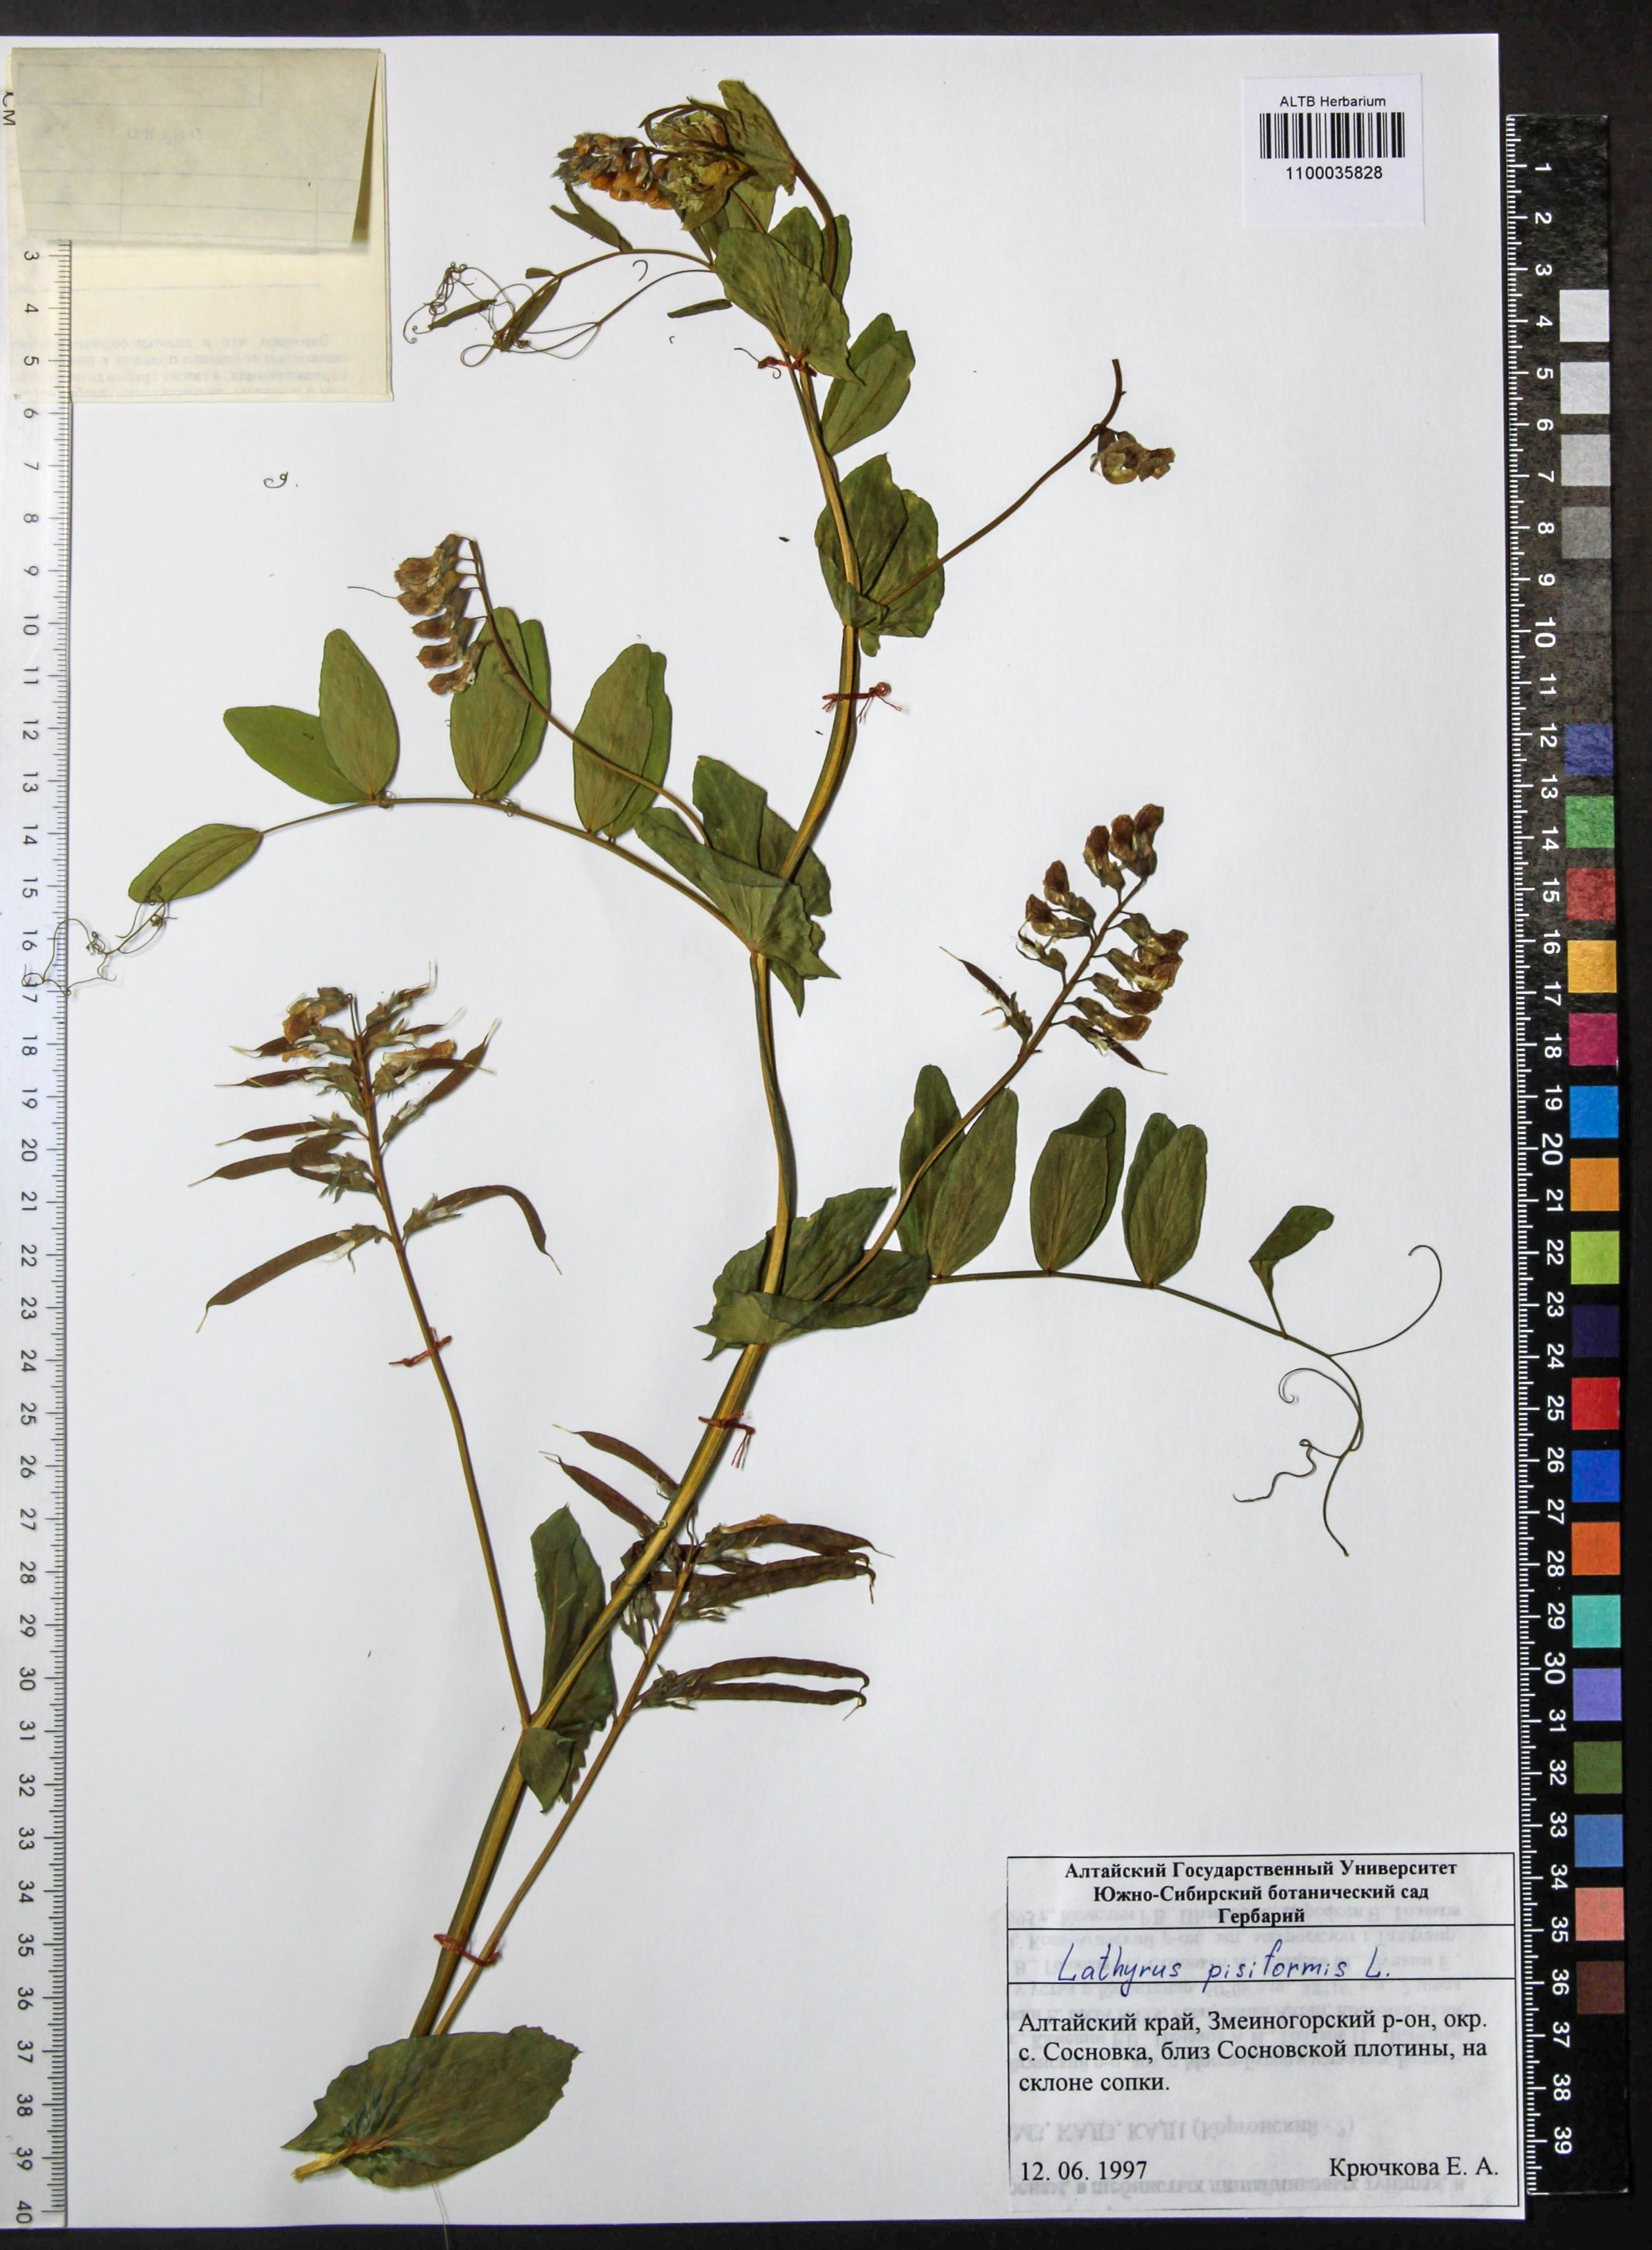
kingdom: Plantae
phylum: Tracheophyta
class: Magnoliopsida
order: Fabales
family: Fabaceae
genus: Lathyrus
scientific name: Lathyrus pisiformis
